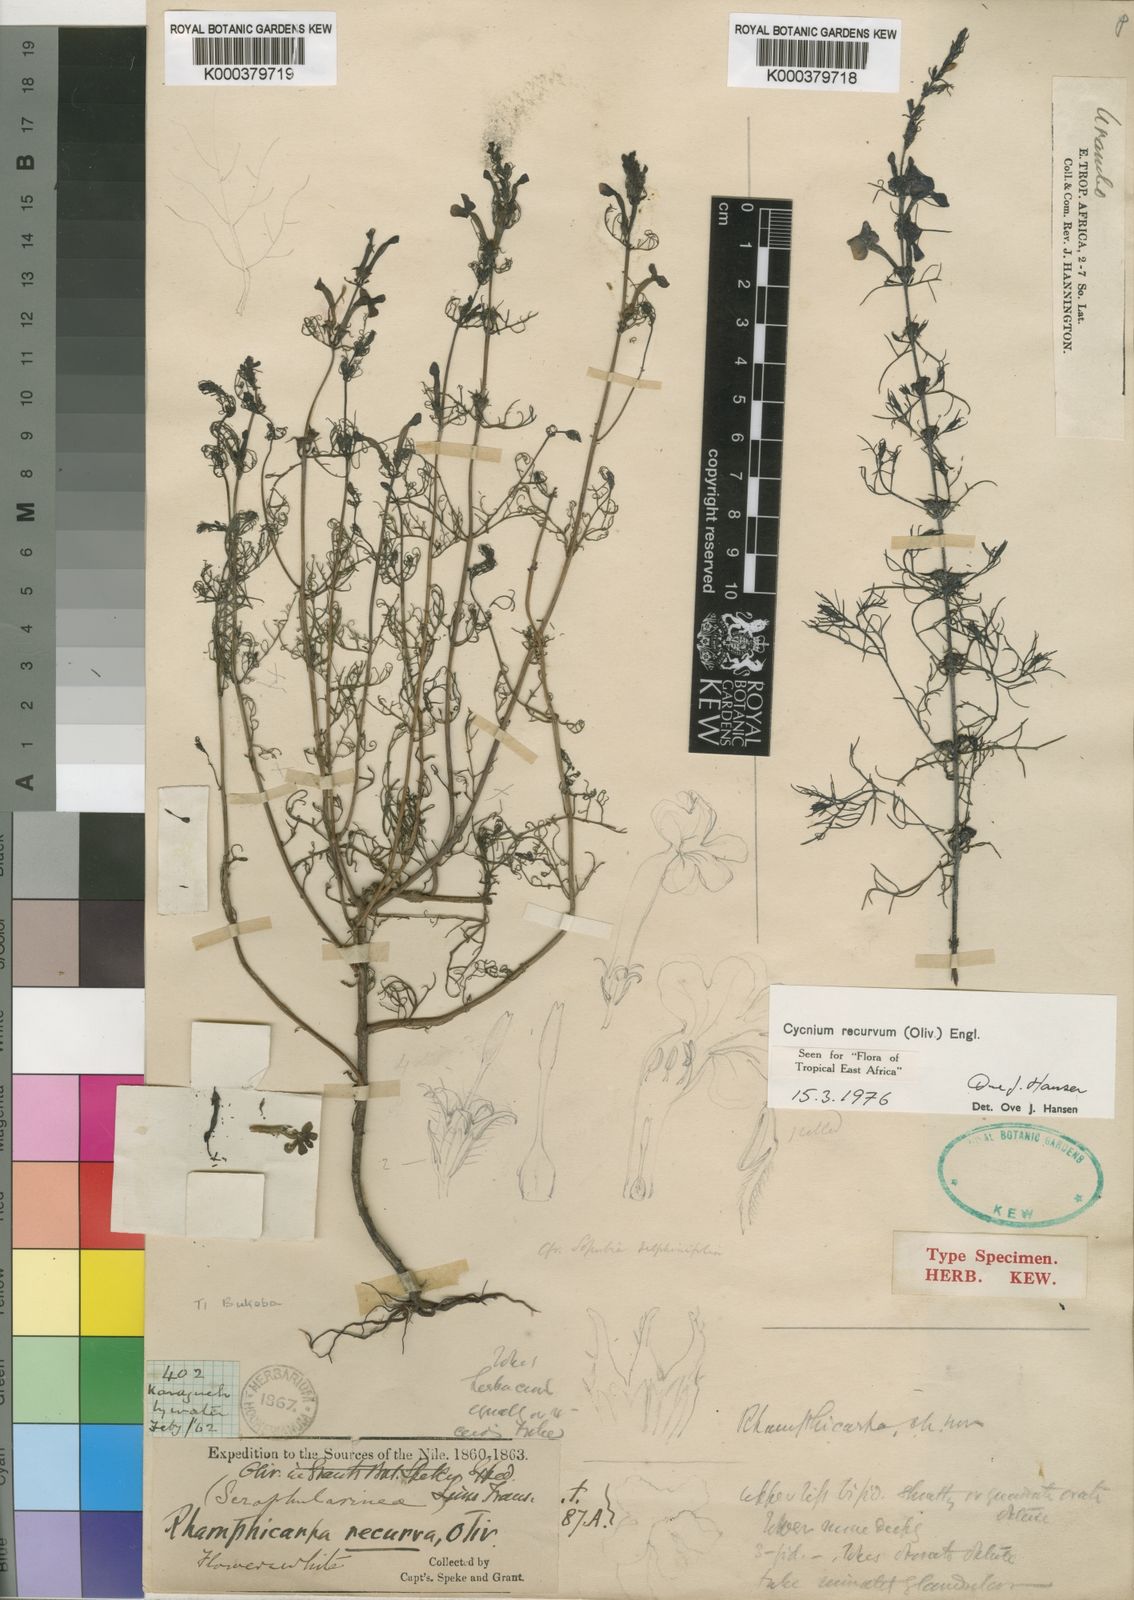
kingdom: Plantae
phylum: Tracheophyta
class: Magnoliopsida
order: Lamiales
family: Orobanchaceae
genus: Cycnium
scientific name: Cycnium recurvum
